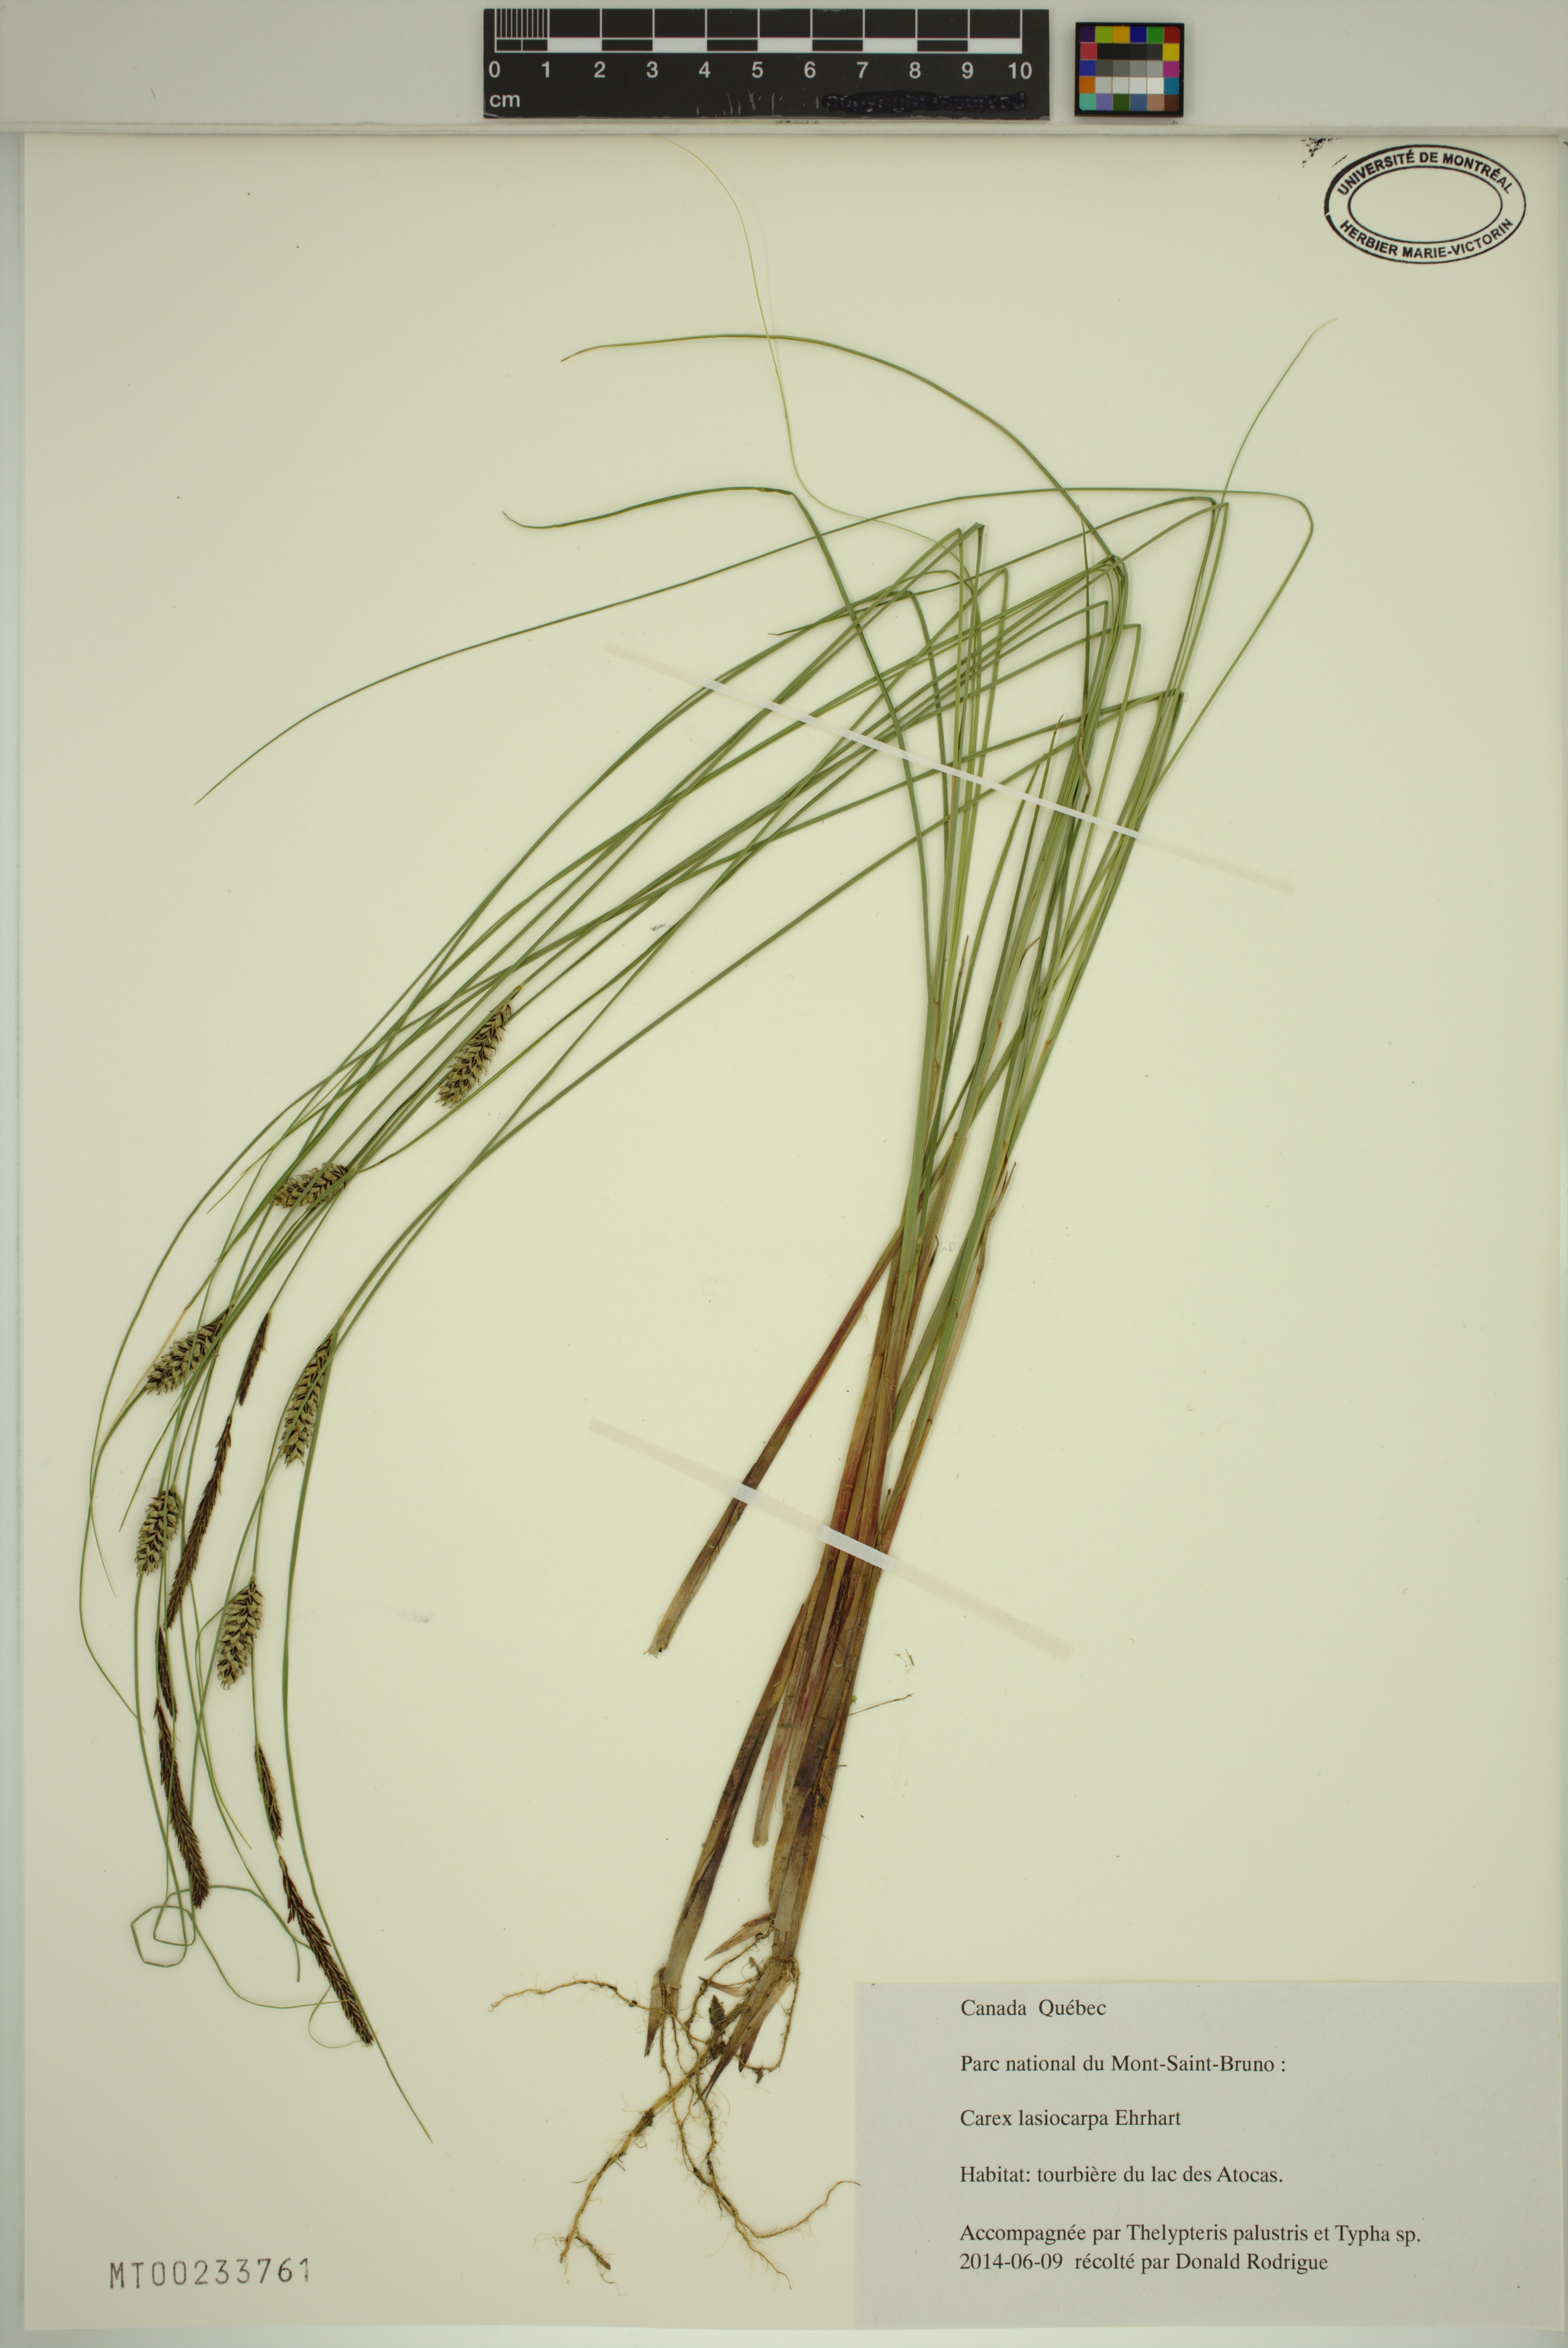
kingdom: Plantae
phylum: Tracheophyta
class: Liliopsida
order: Poales
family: Cyperaceae
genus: Carex
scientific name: Carex lasiocarpa
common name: Slender sedge
